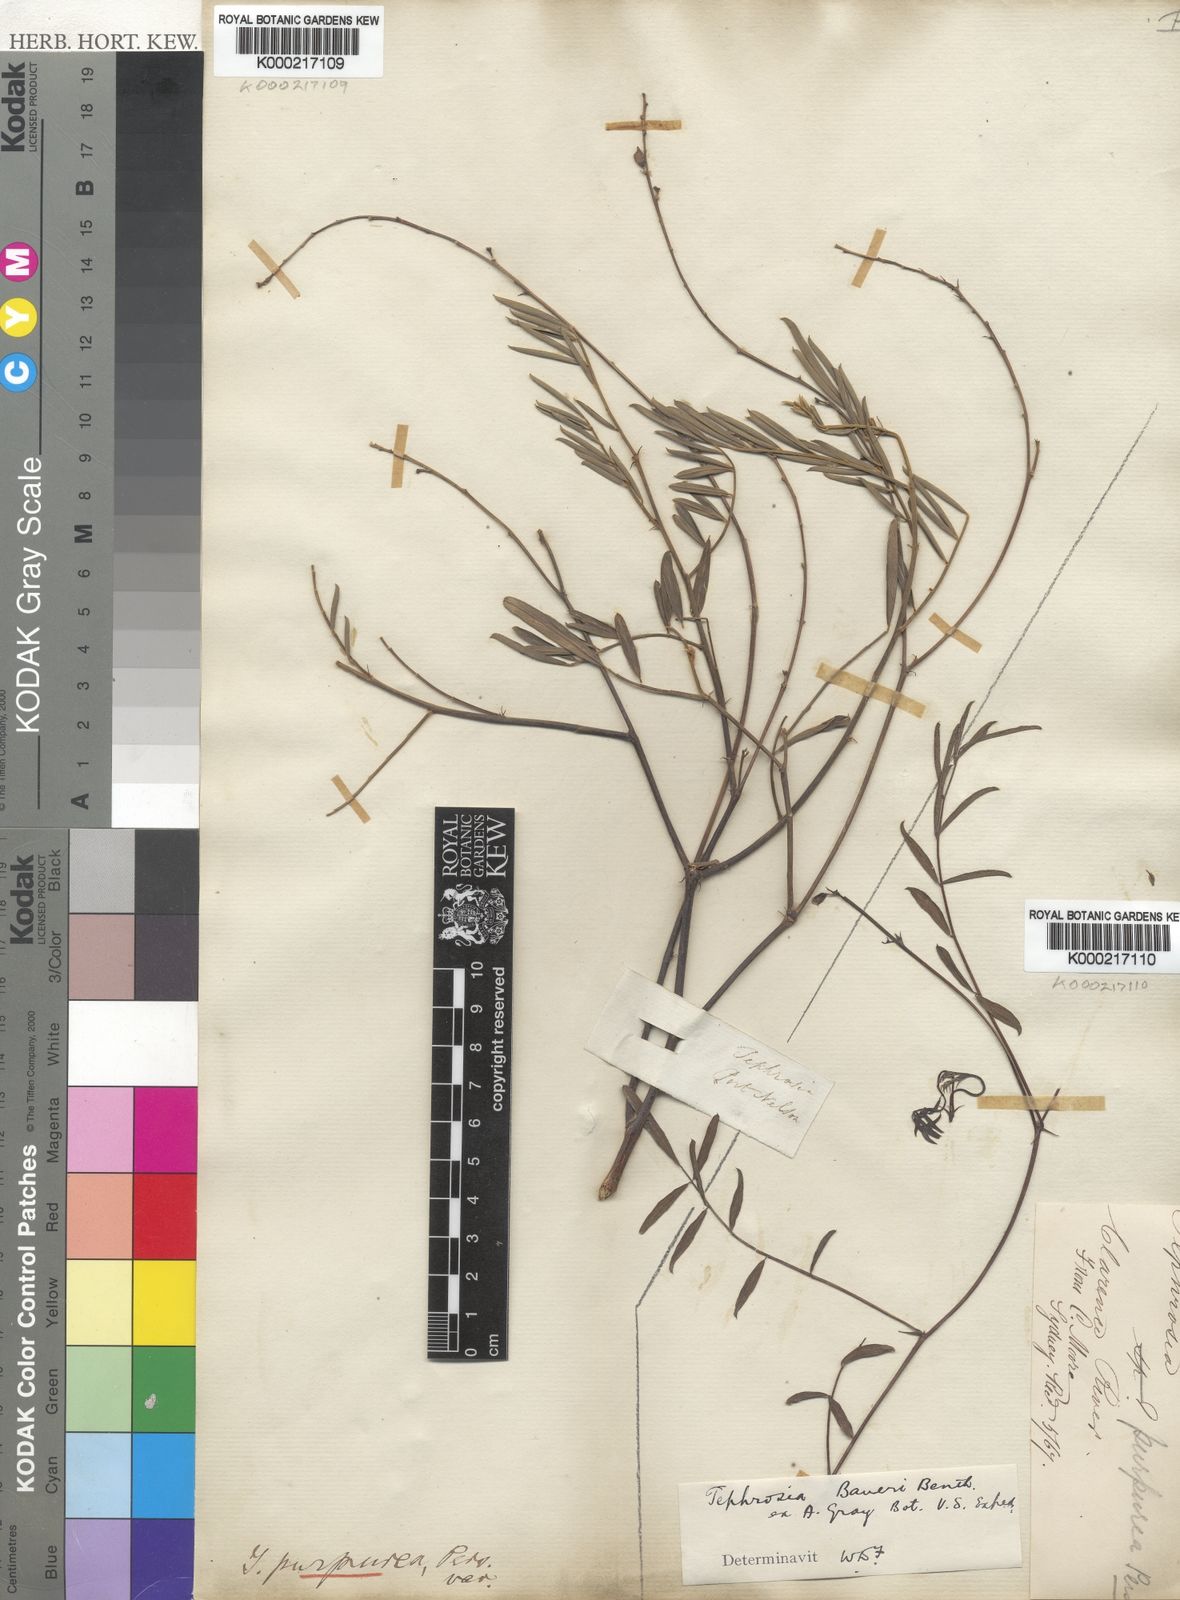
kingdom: Plantae
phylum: Tracheophyta
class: Magnoliopsida
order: Fabales
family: Fabaceae
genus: Tephrosia
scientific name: Tephrosia purpurea
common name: Fishpoison
